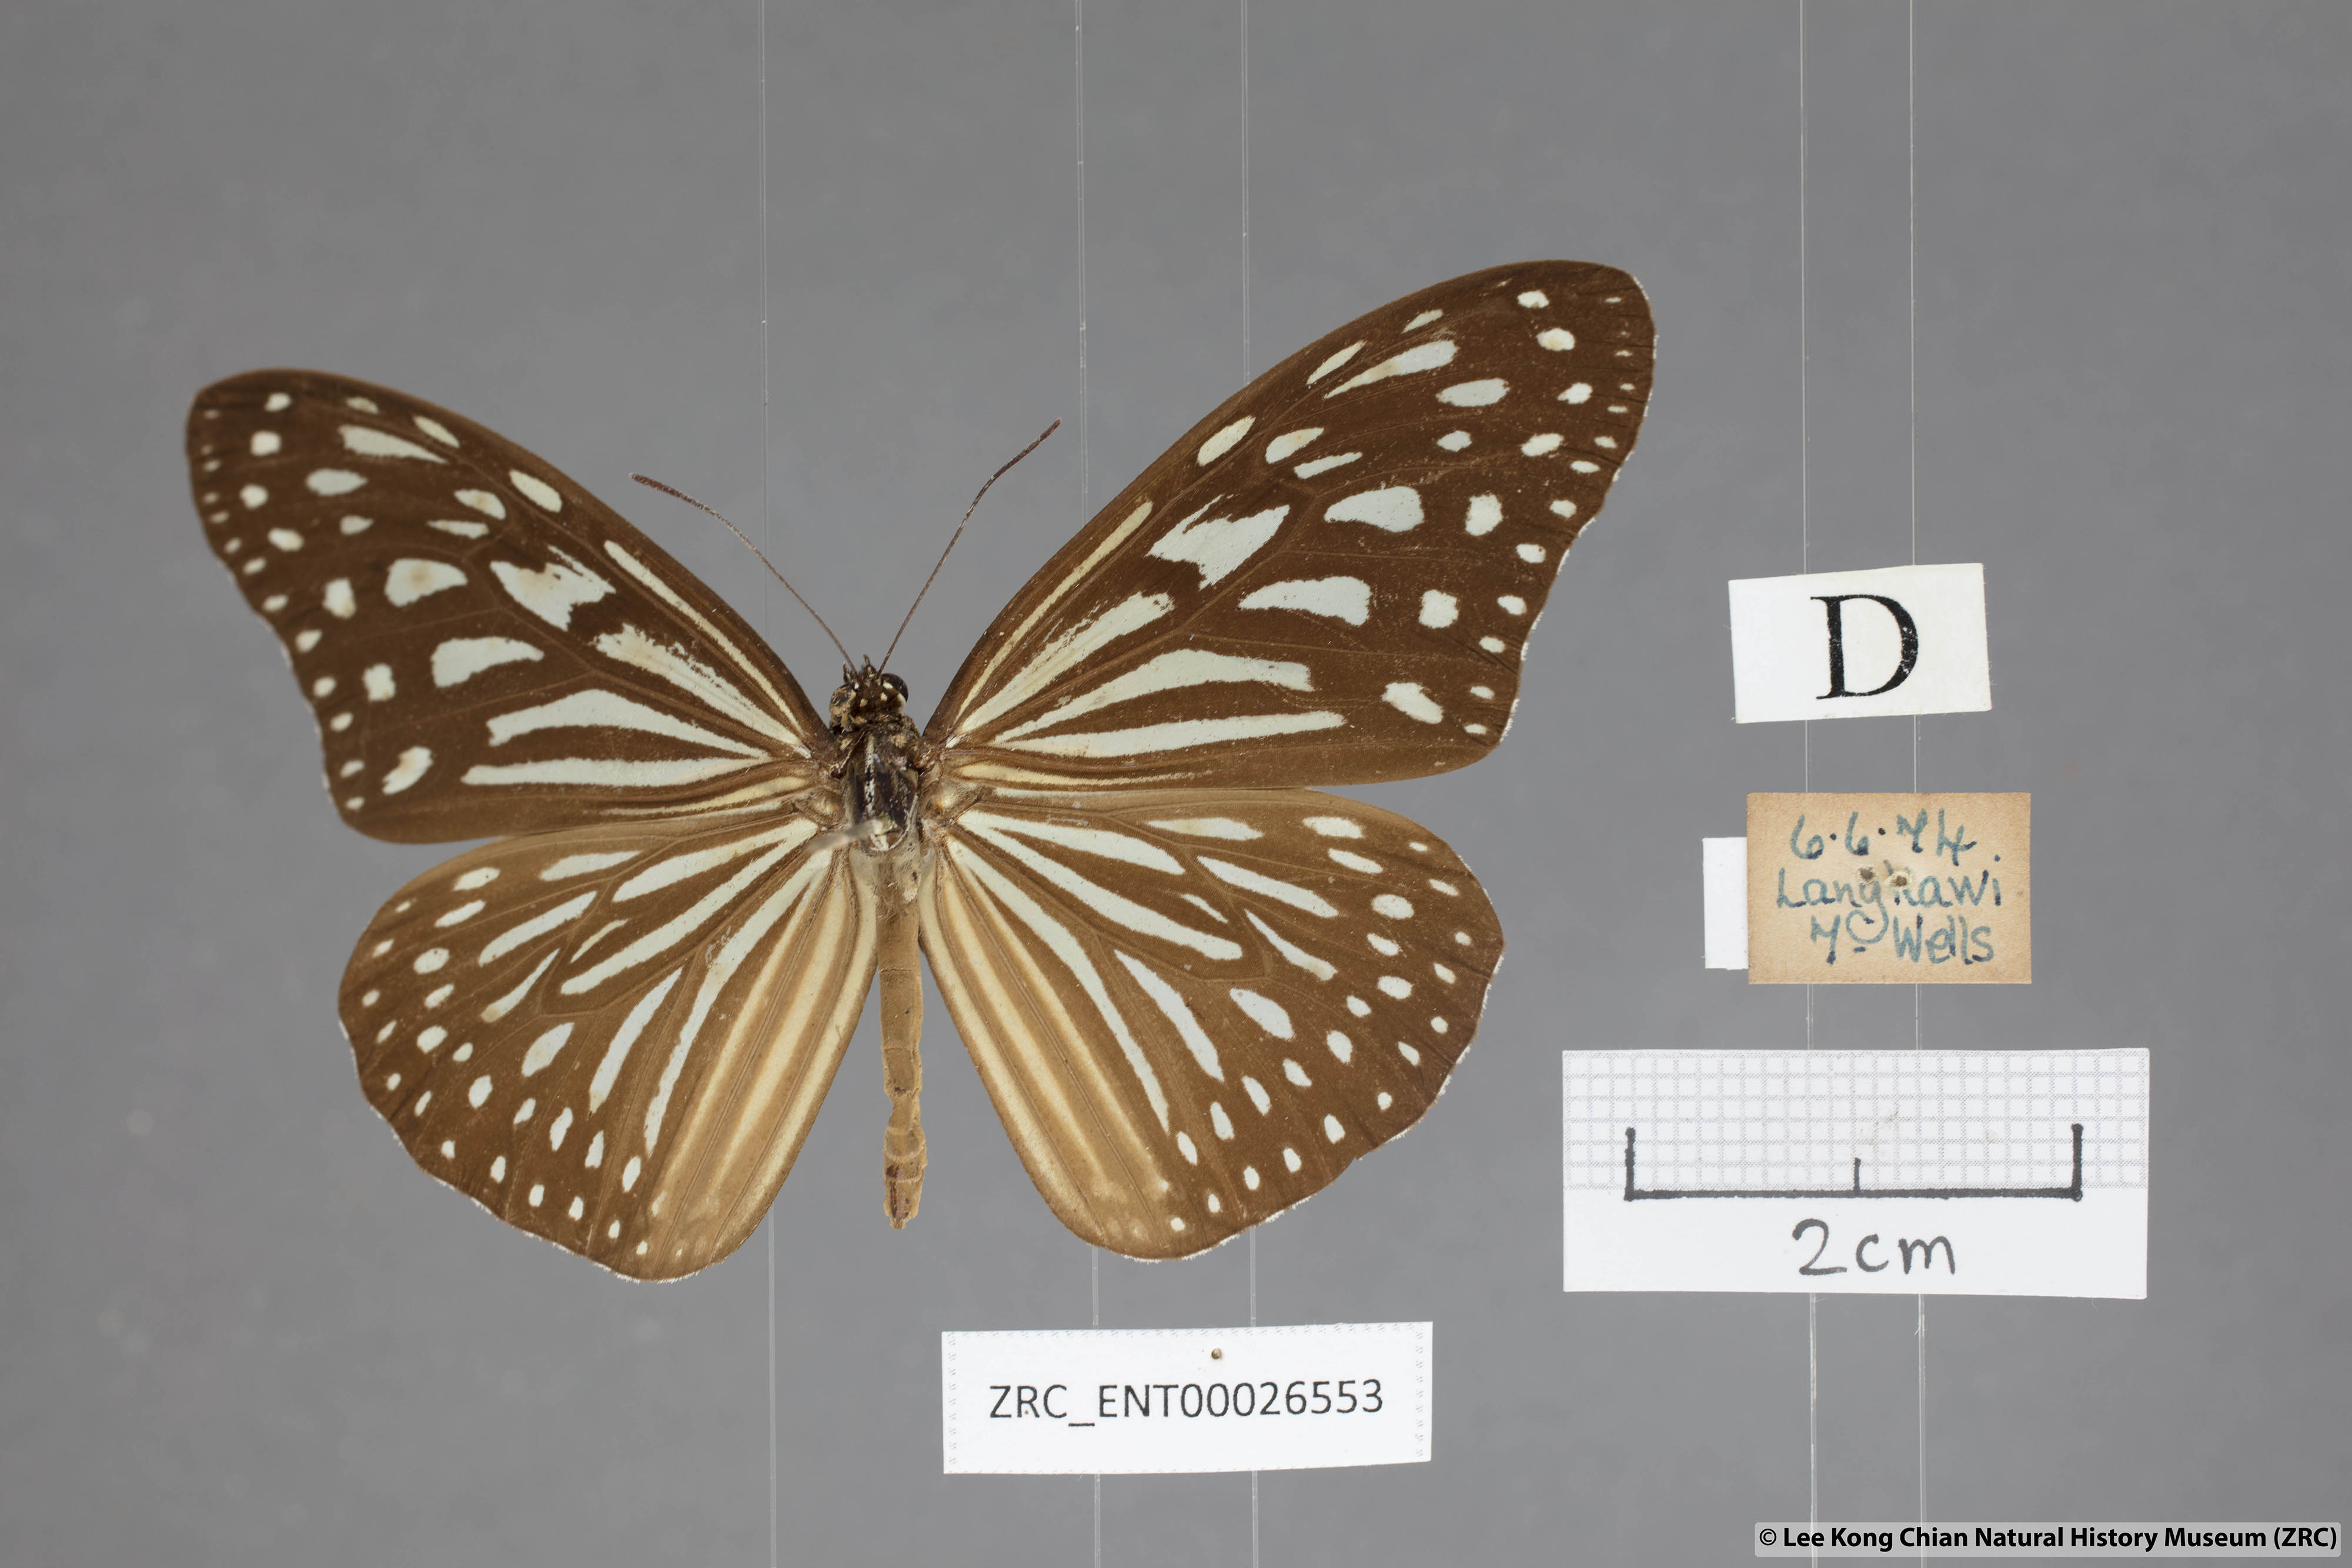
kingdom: Animalia
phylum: Arthropoda
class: Insecta
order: Lepidoptera
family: Nymphalidae
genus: Ideopsis
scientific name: Ideopsis vulgaris
